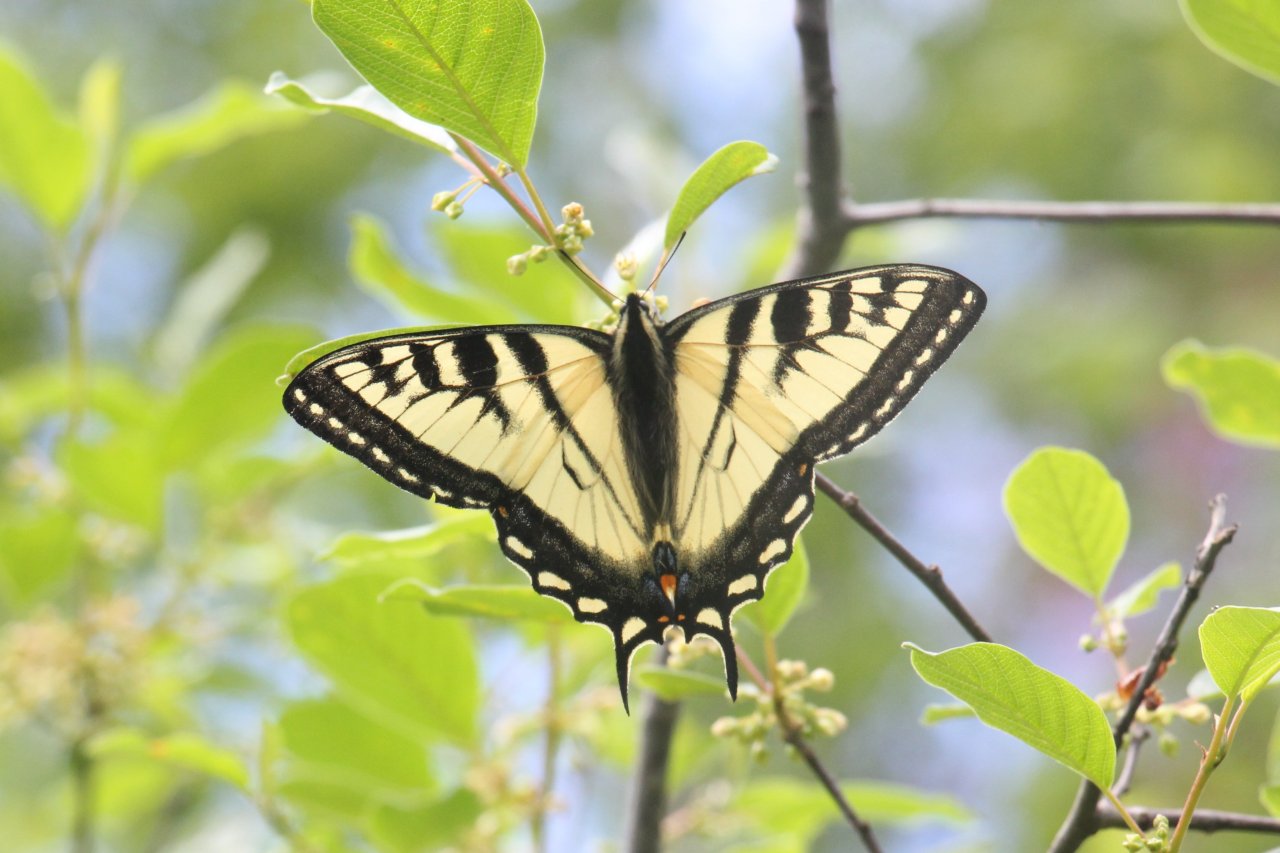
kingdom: Animalia
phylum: Arthropoda
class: Insecta
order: Lepidoptera
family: Papilionidae
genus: Pterourus
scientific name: Pterourus glaucus
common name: Eastern Tiger Swallowtail
